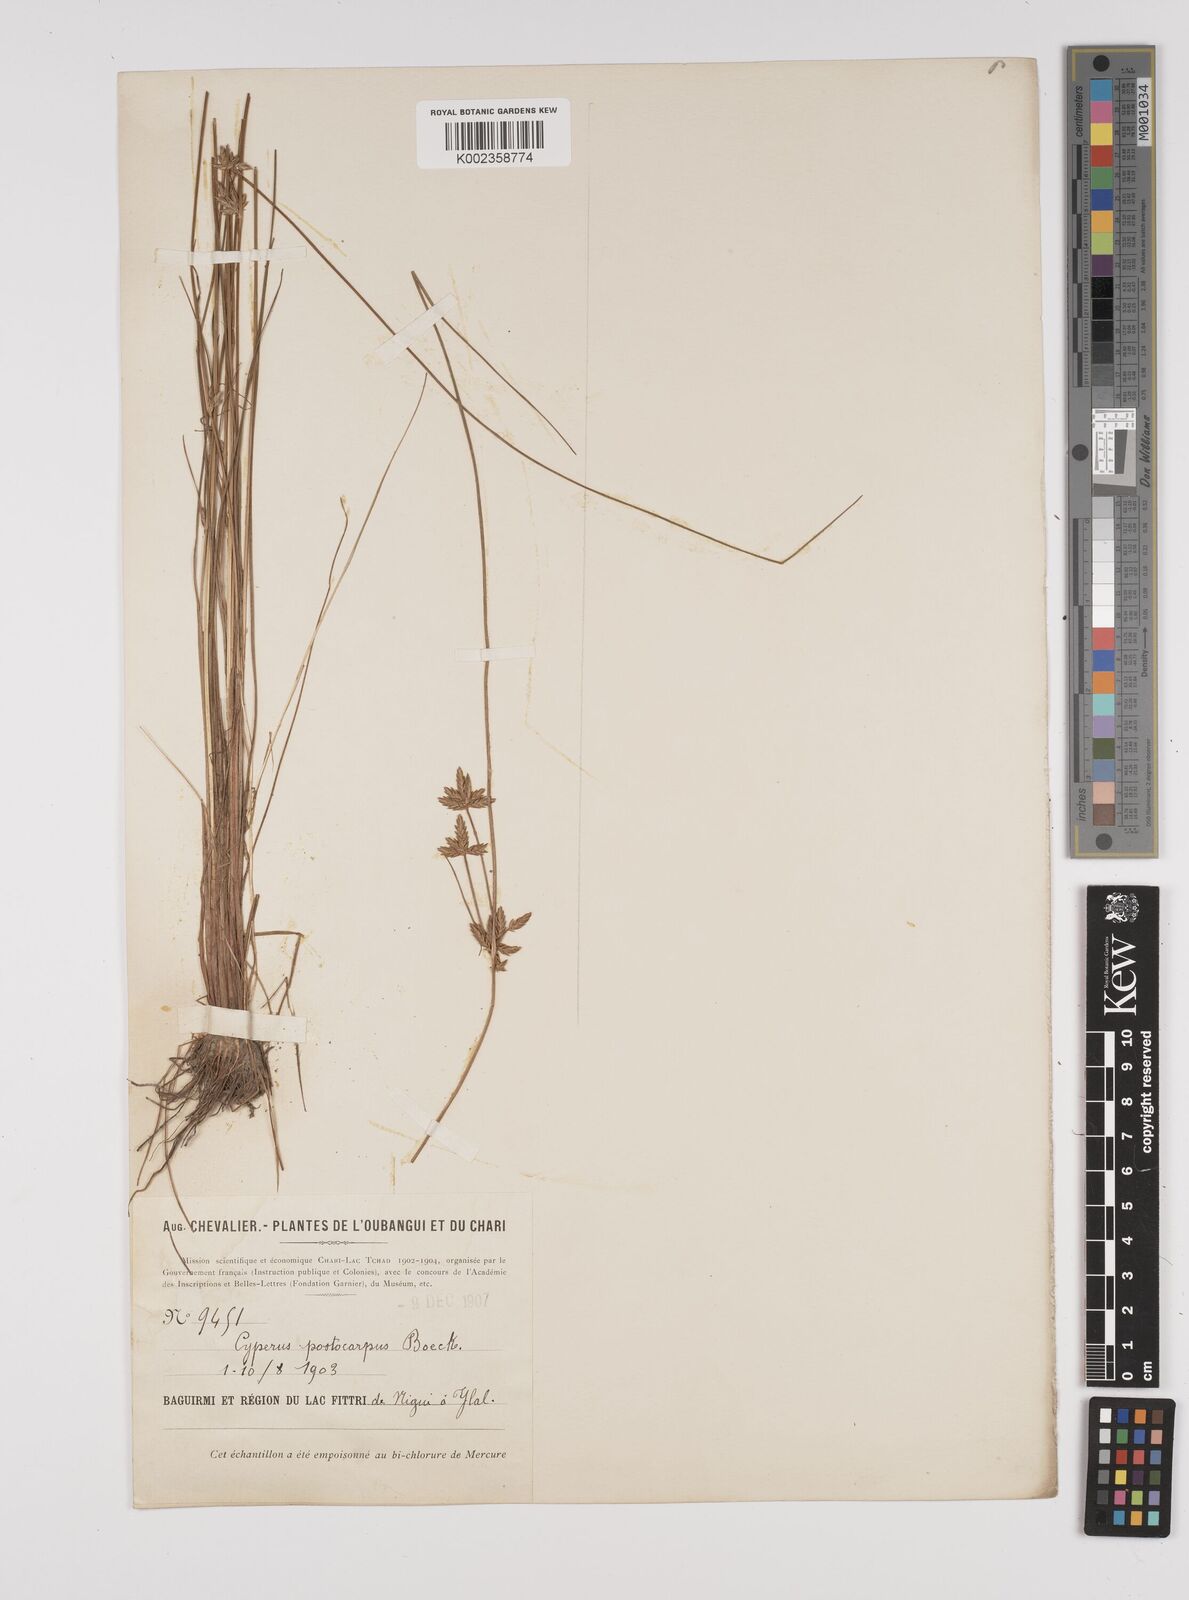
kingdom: Plantae
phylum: Tracheophyta
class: Liliopsida
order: Poales
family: Cyperaceae
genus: Cyperus
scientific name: Cyperus podocarpus
